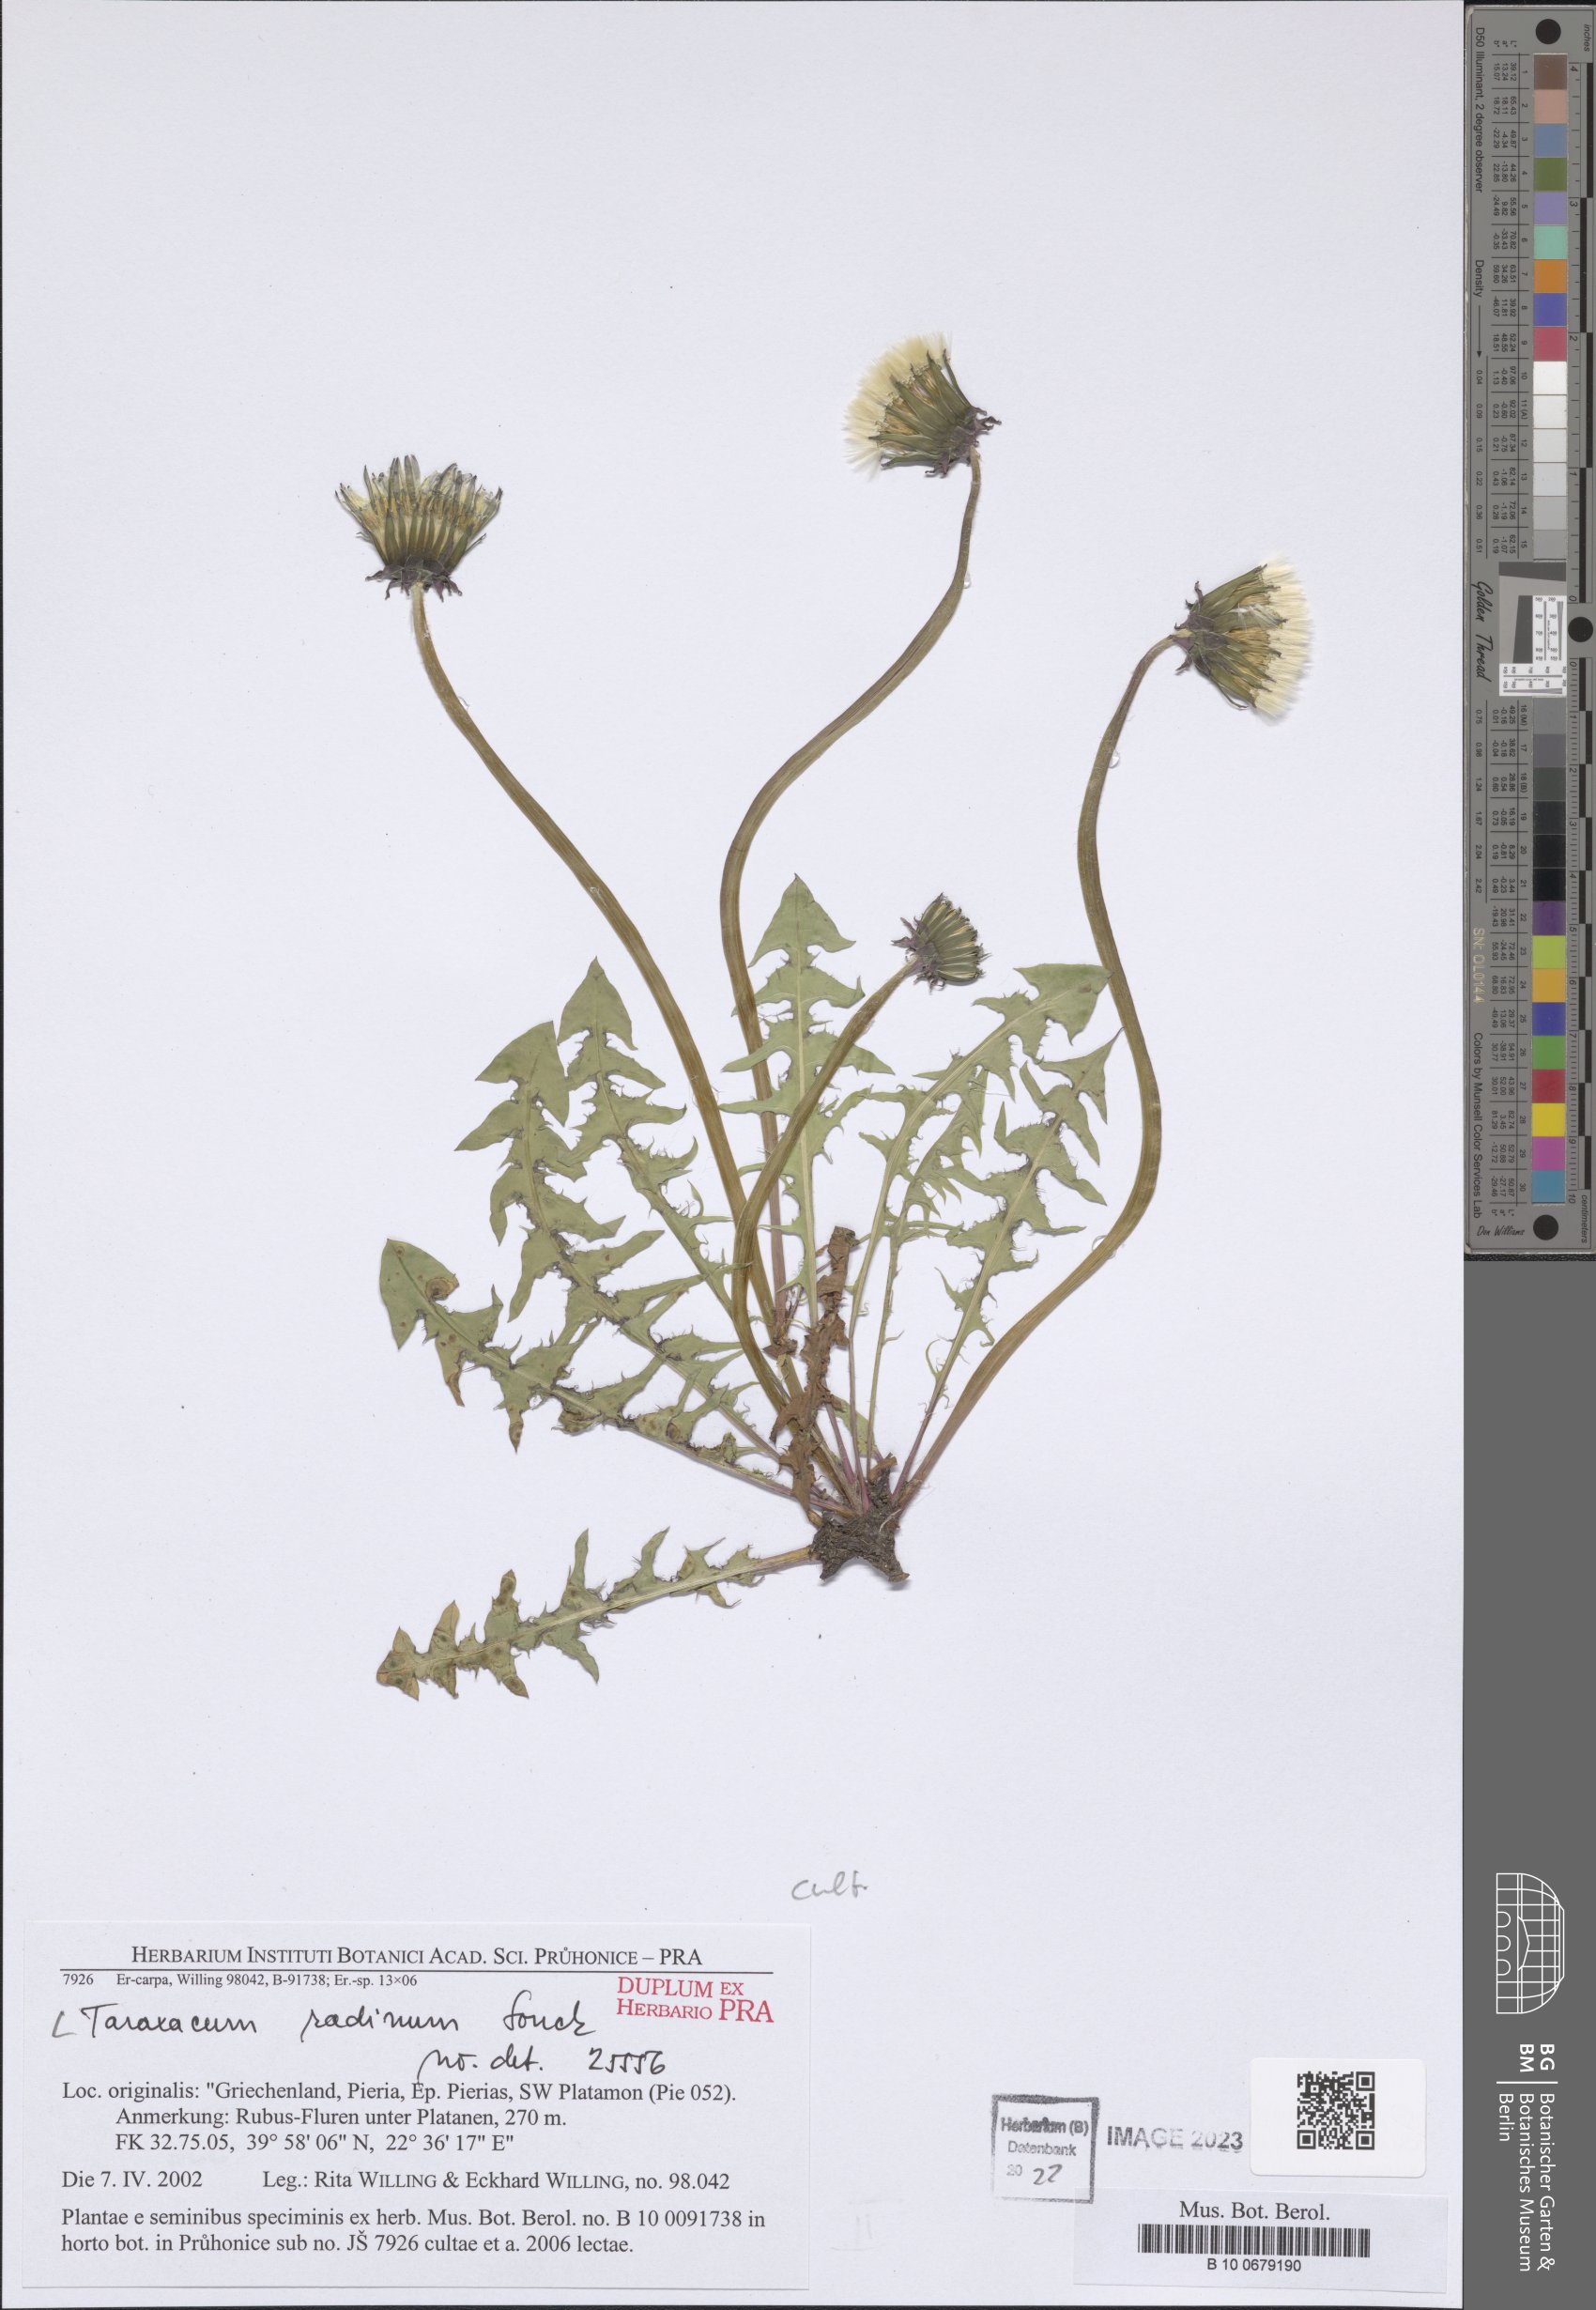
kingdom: Plantae
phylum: Tracheophyta
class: Magnoliopsida
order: Asterales
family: Asteraceae
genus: Taraxacum
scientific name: Taraxacum radinum
